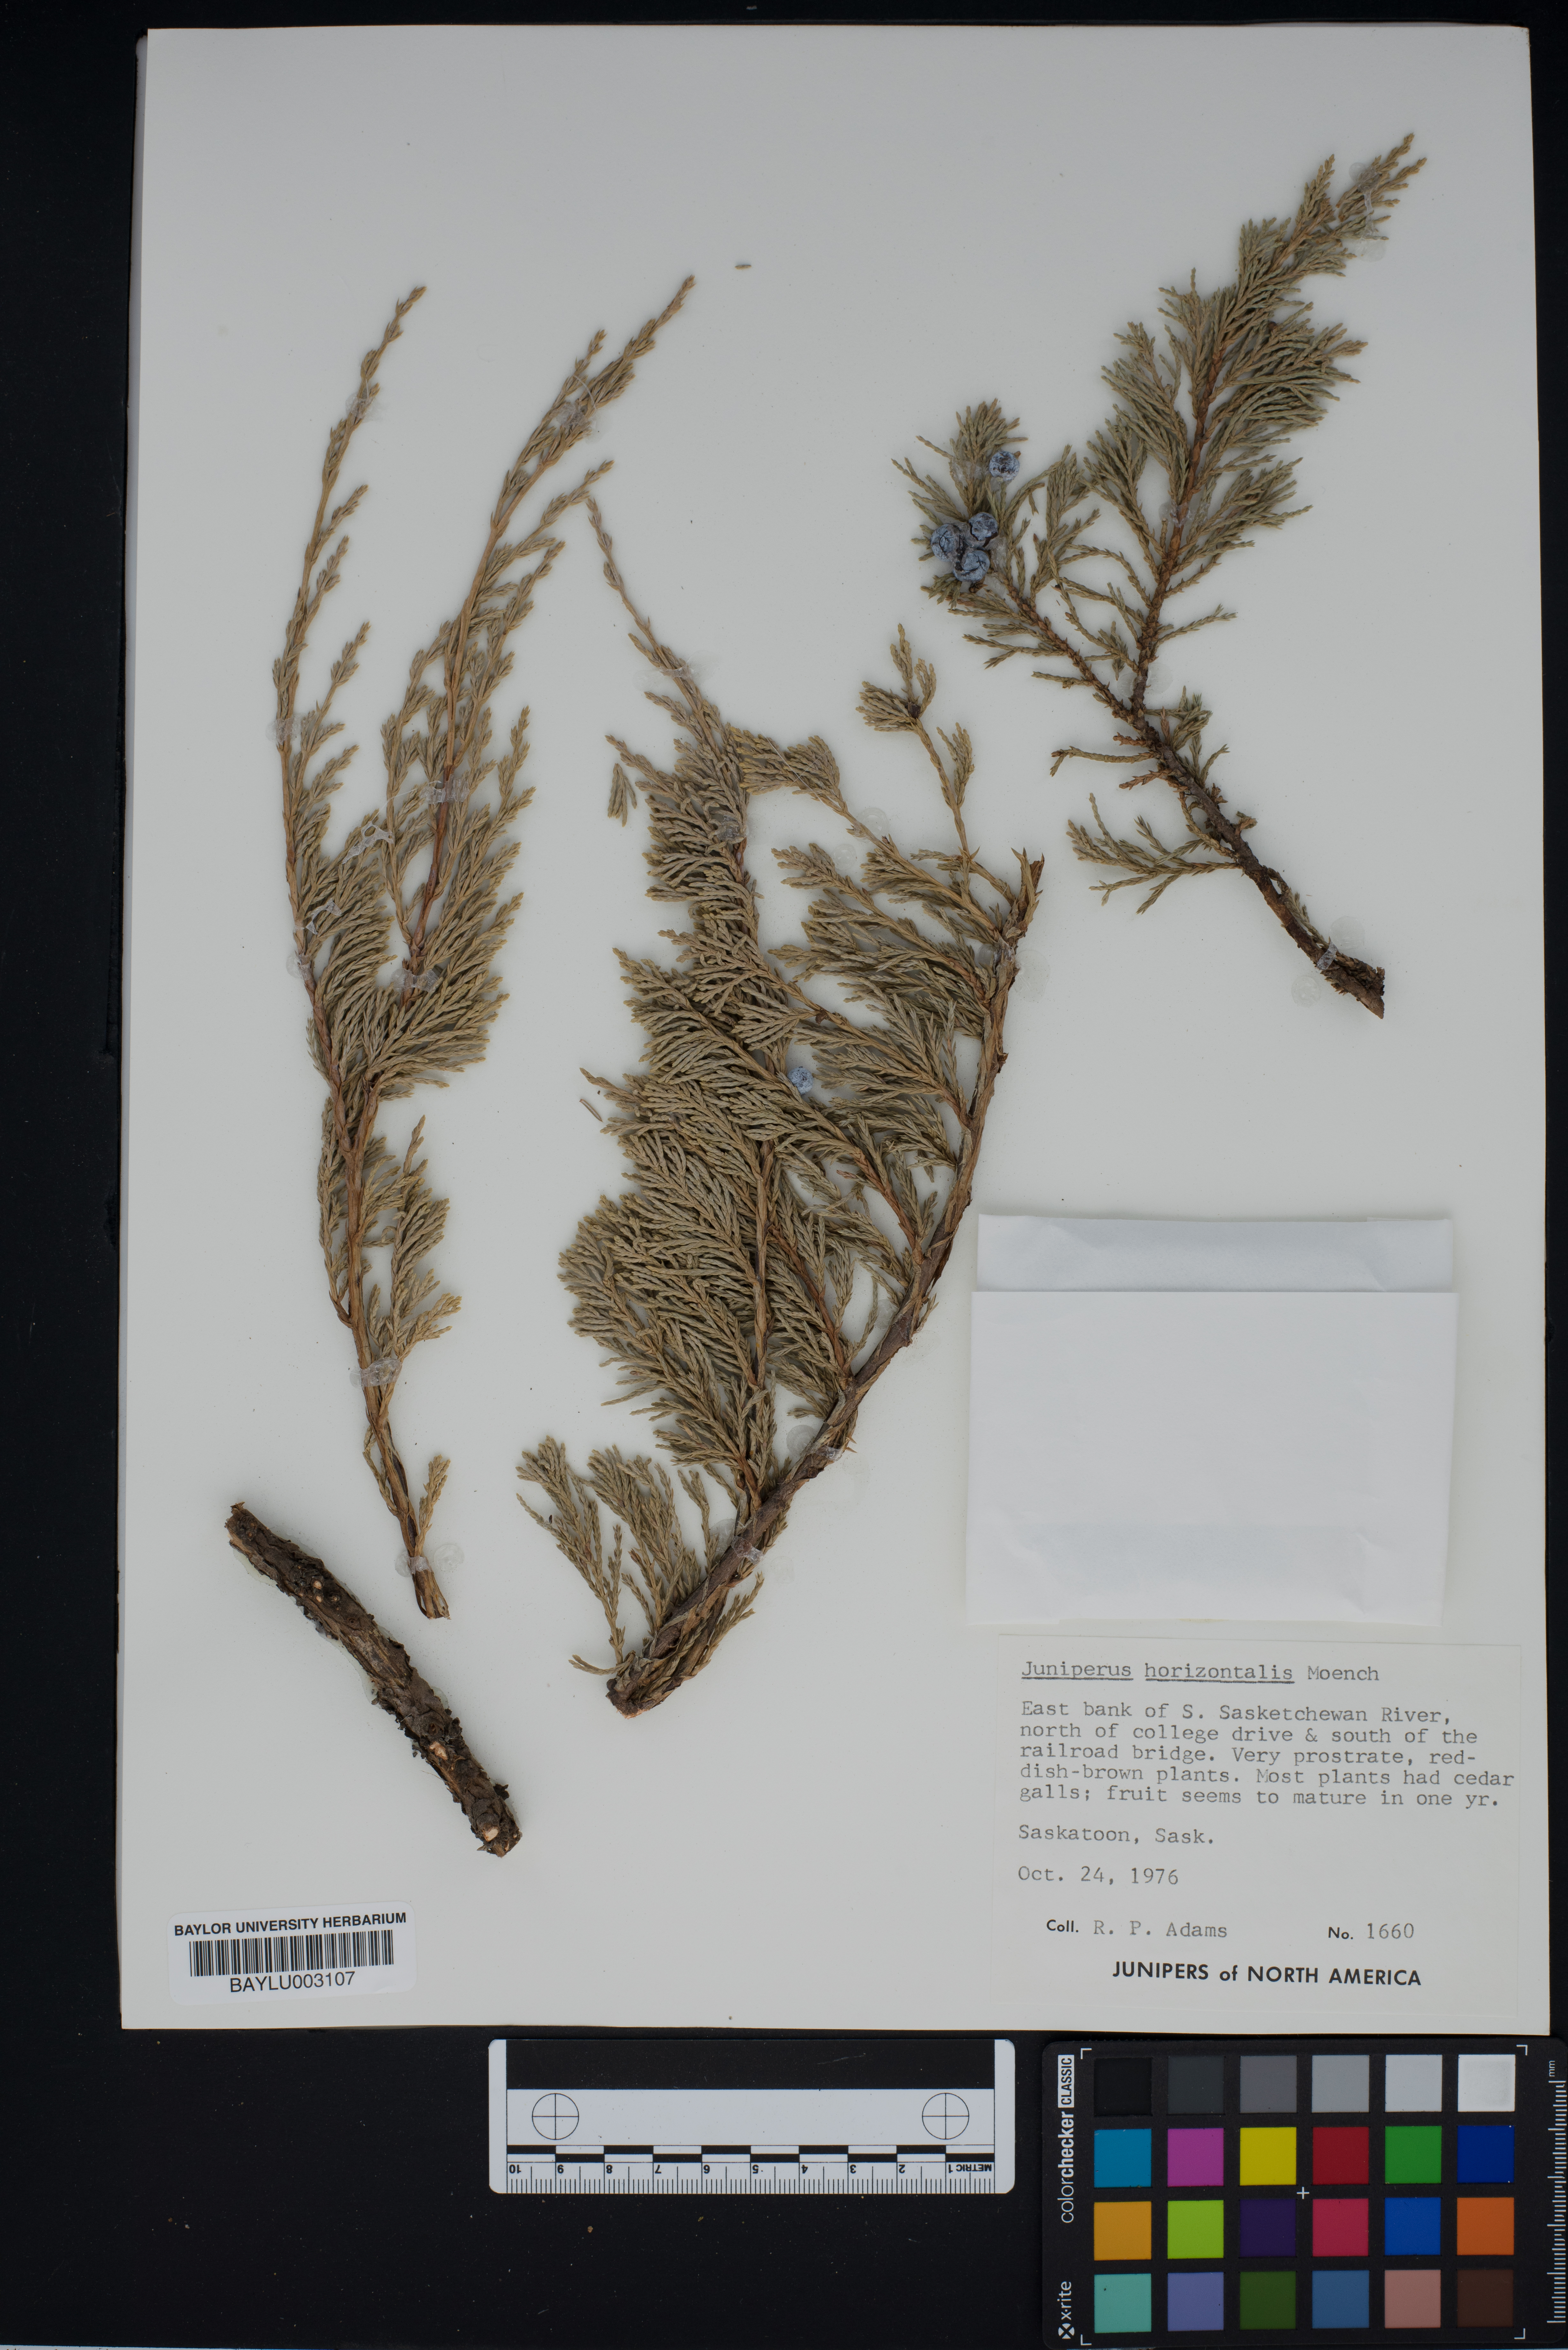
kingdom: Plantae
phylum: Tracheophyta
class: Pinopsida
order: Pinales
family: Cupressaceae
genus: Juniperus
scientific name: Juniperus horizontalis
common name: Creeping juniper
